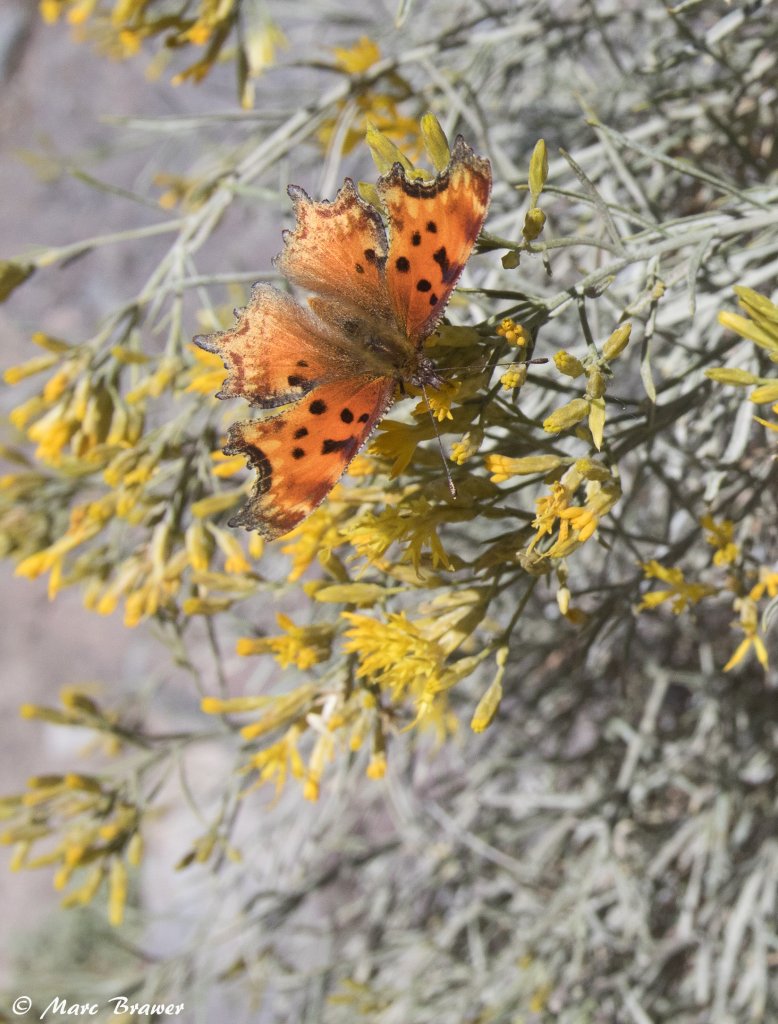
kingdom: Animalia
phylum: Arthropoda
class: Insecta
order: Lepidoptera
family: Nymphalidae
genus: Polygonia
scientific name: Polygonia gracilis
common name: Hoary Comma
